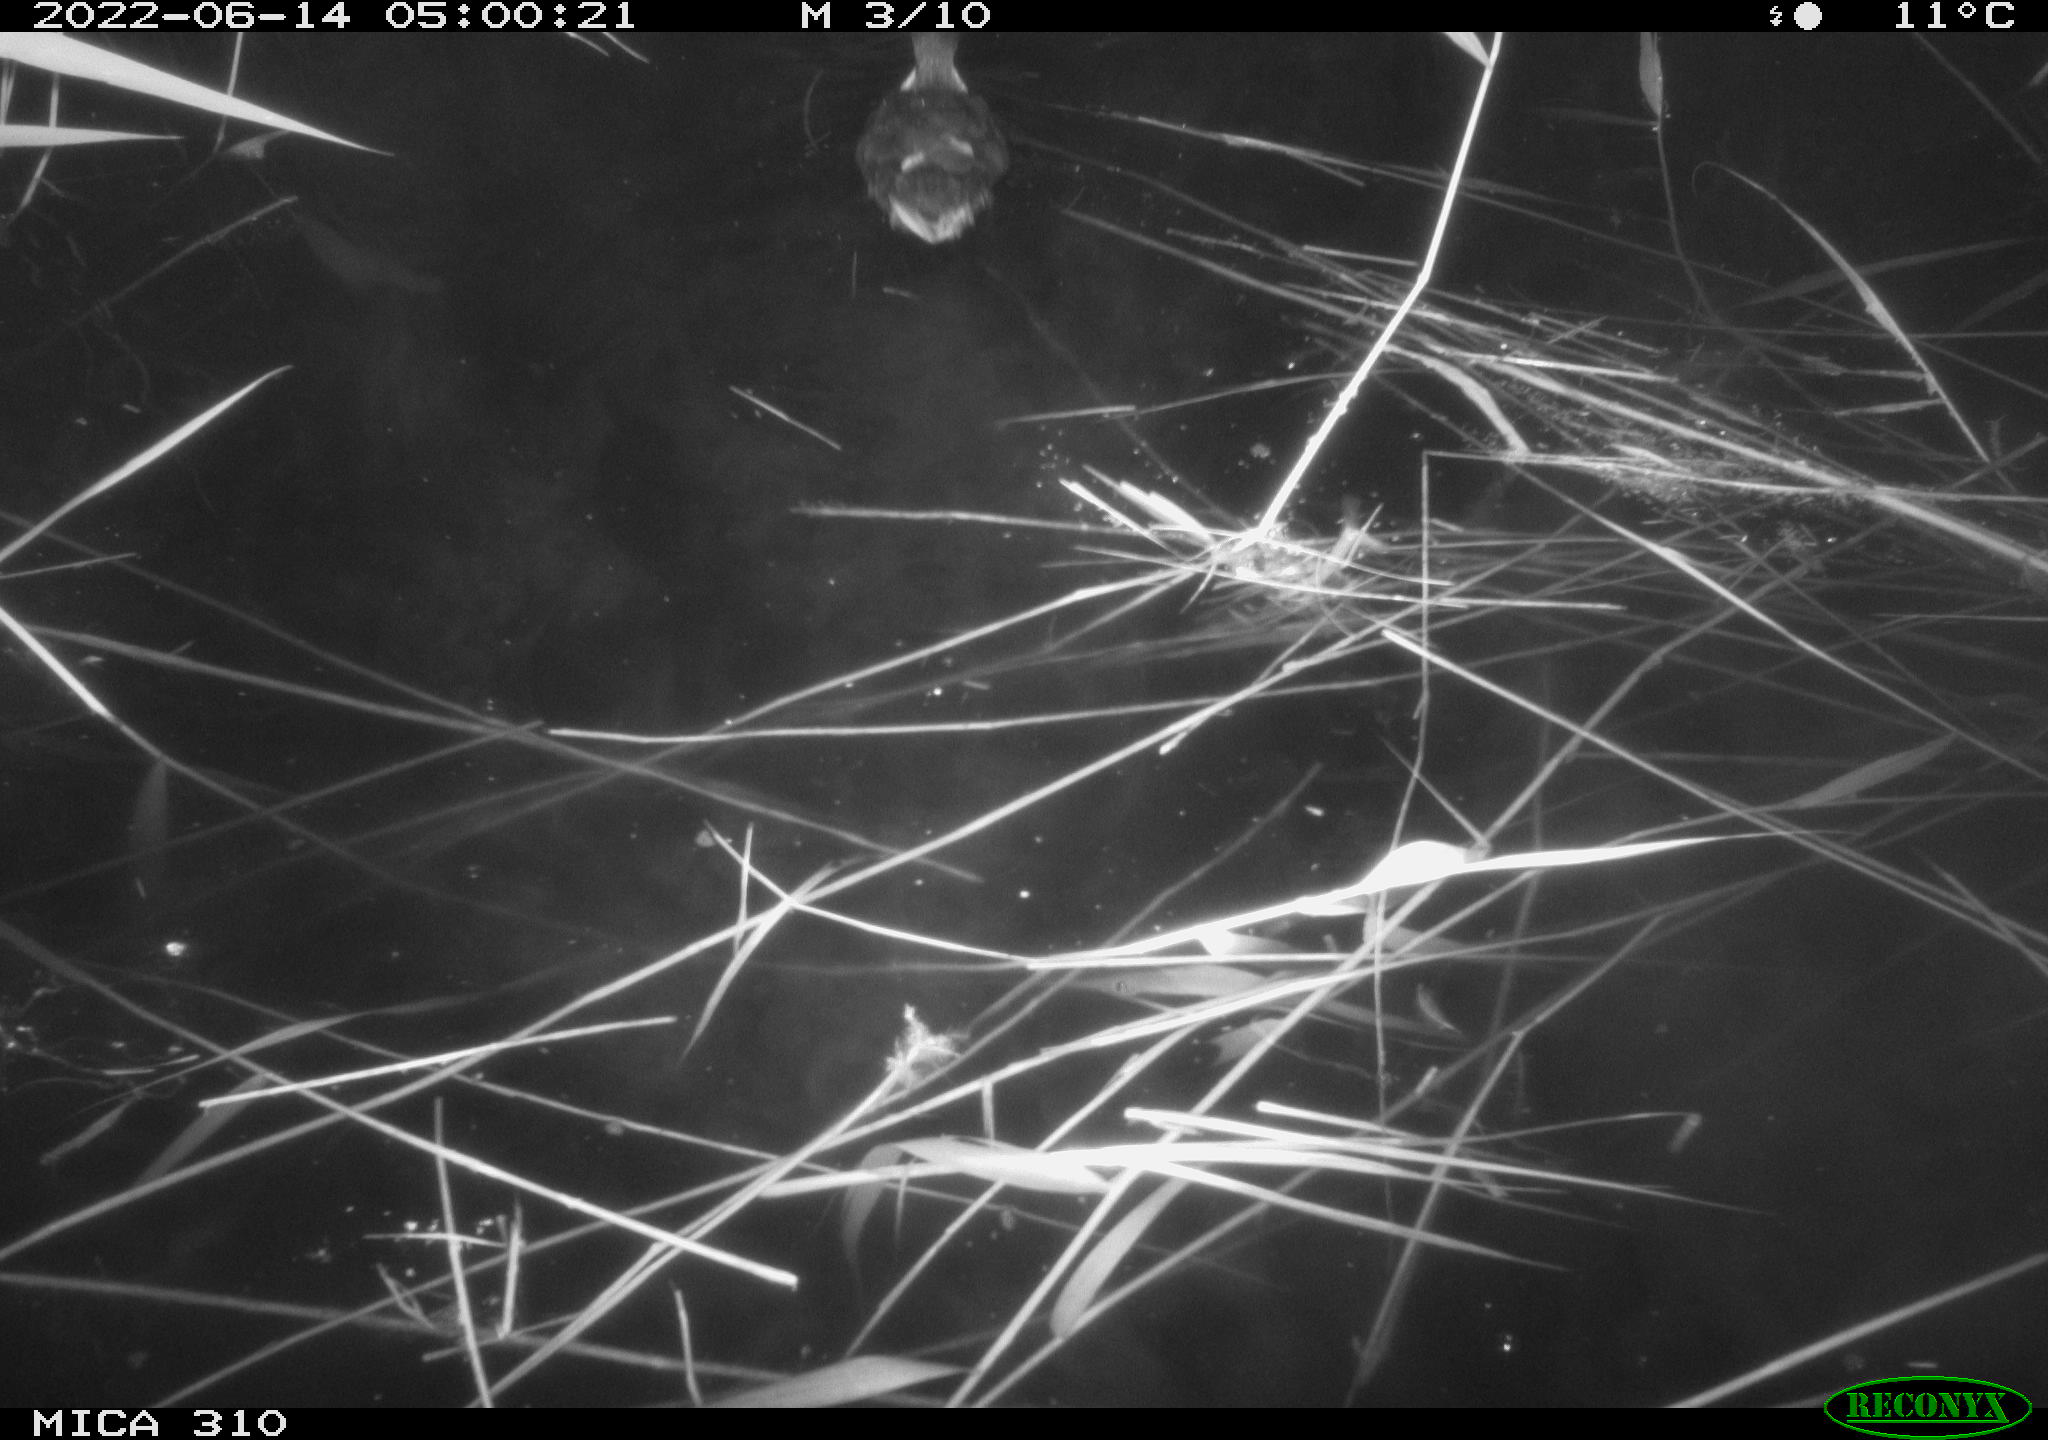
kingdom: Animalia
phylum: Chordata
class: Aves
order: Anseriformes
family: Anatidae
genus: Anas
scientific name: Anas platyrhynchos
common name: Mallard
